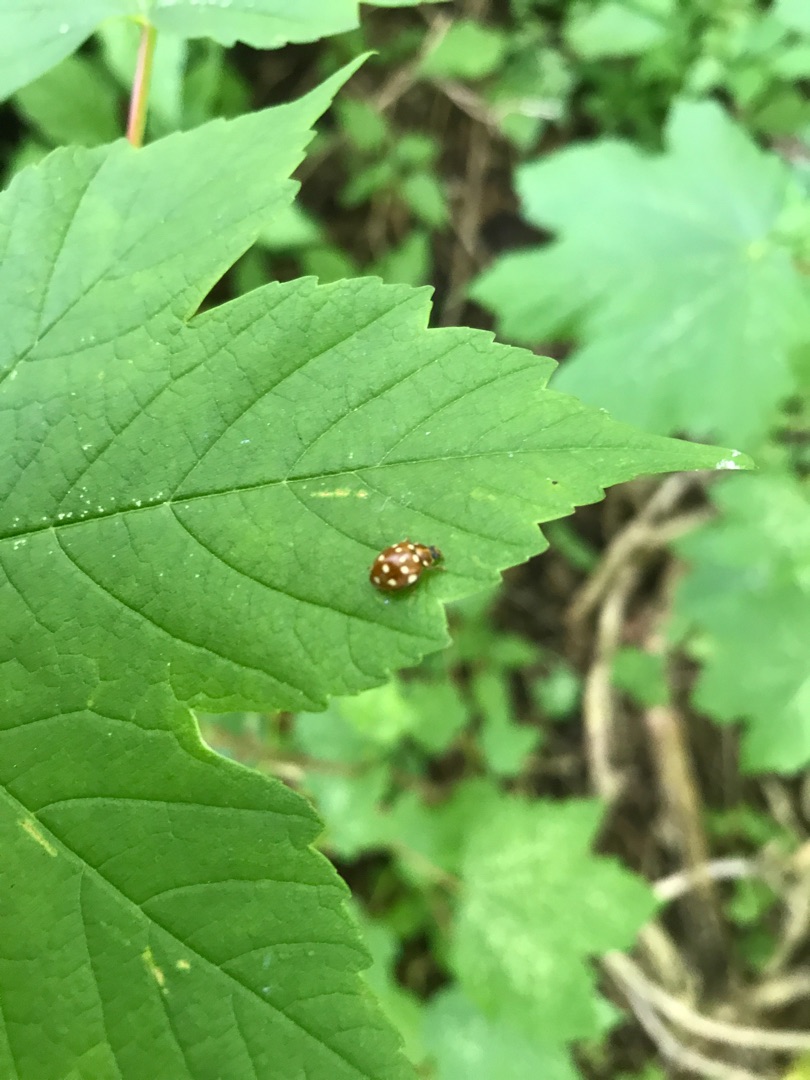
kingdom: Animalia
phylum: Arthropoda
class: Insecta
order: Coleoptera
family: Coccinellidae
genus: Calvia
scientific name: Calvia quatuordecimguttata
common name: Fjortenplettet mariehøne
